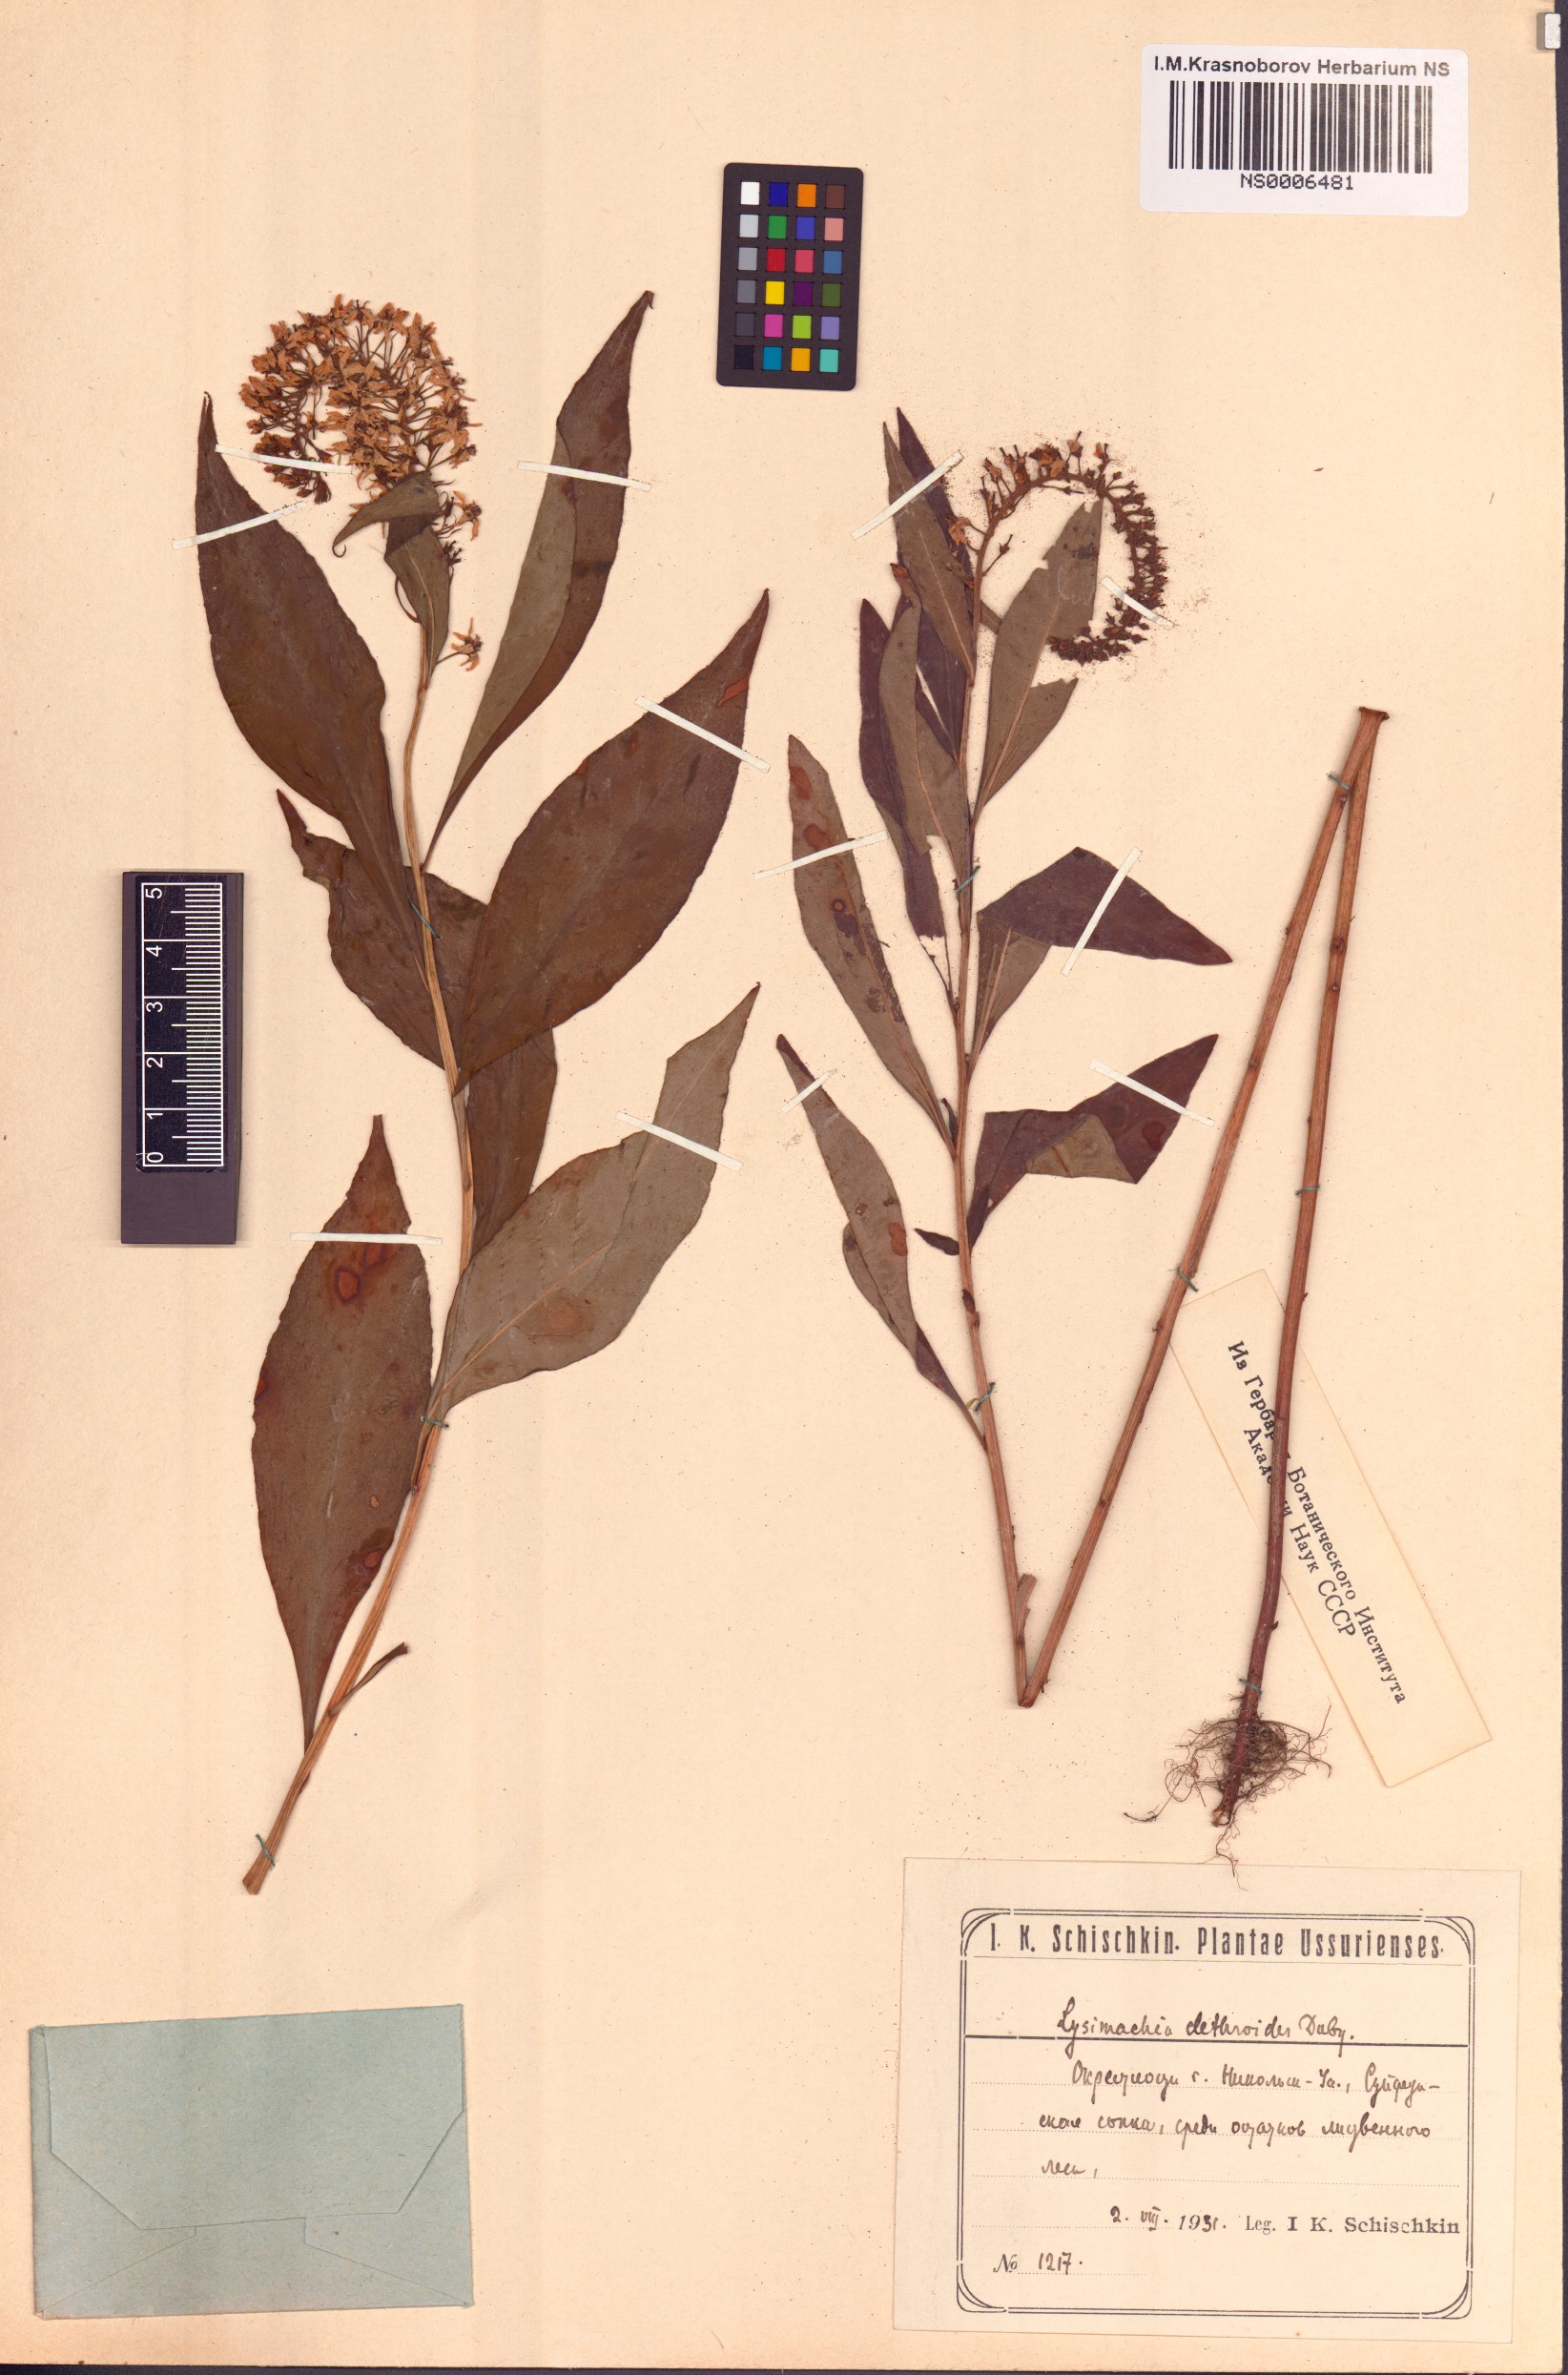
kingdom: Plantae
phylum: Tracheophyta
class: Magnoliopsida
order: Ericales
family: Primulaceae
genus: Lysimachia
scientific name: Lysimachia clethroides
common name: Gooseneck loosestrife
